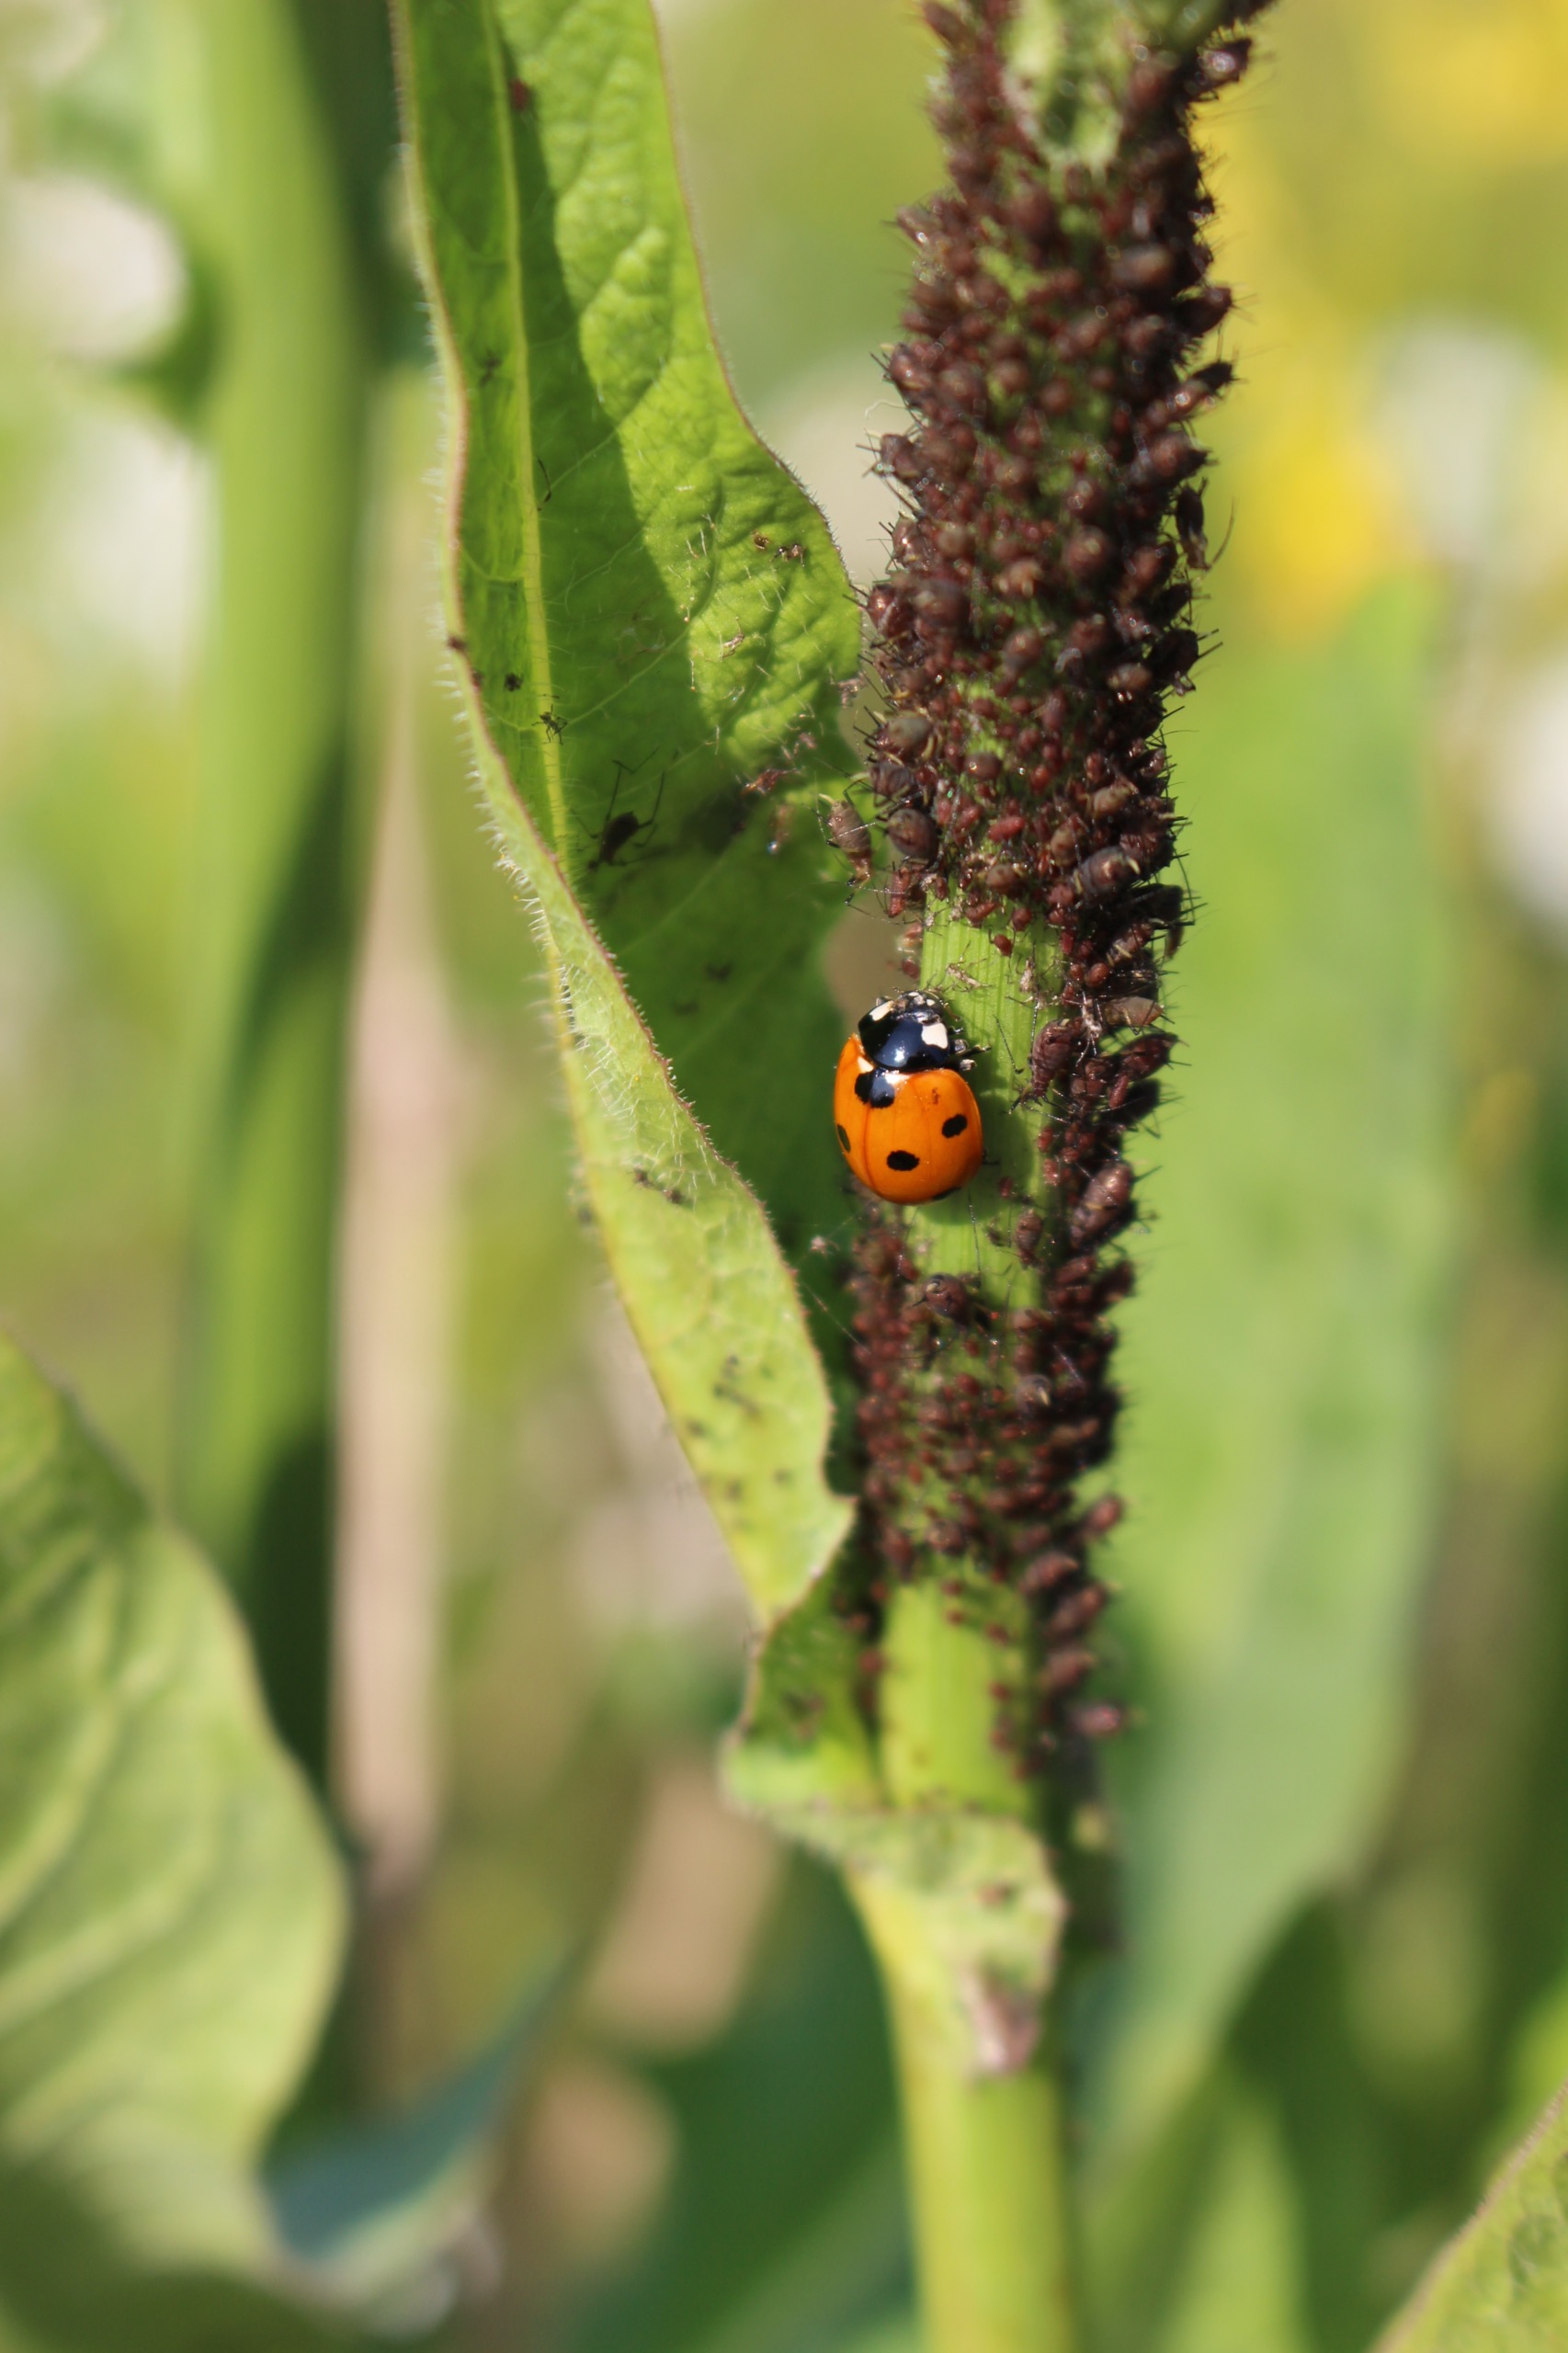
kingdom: Animalia
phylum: Arthropoda
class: Insecta
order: Coleoptera
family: Coccinellidae
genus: Coccinella
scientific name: Coccinella septempunctata
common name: Syvplettet mariehøne
